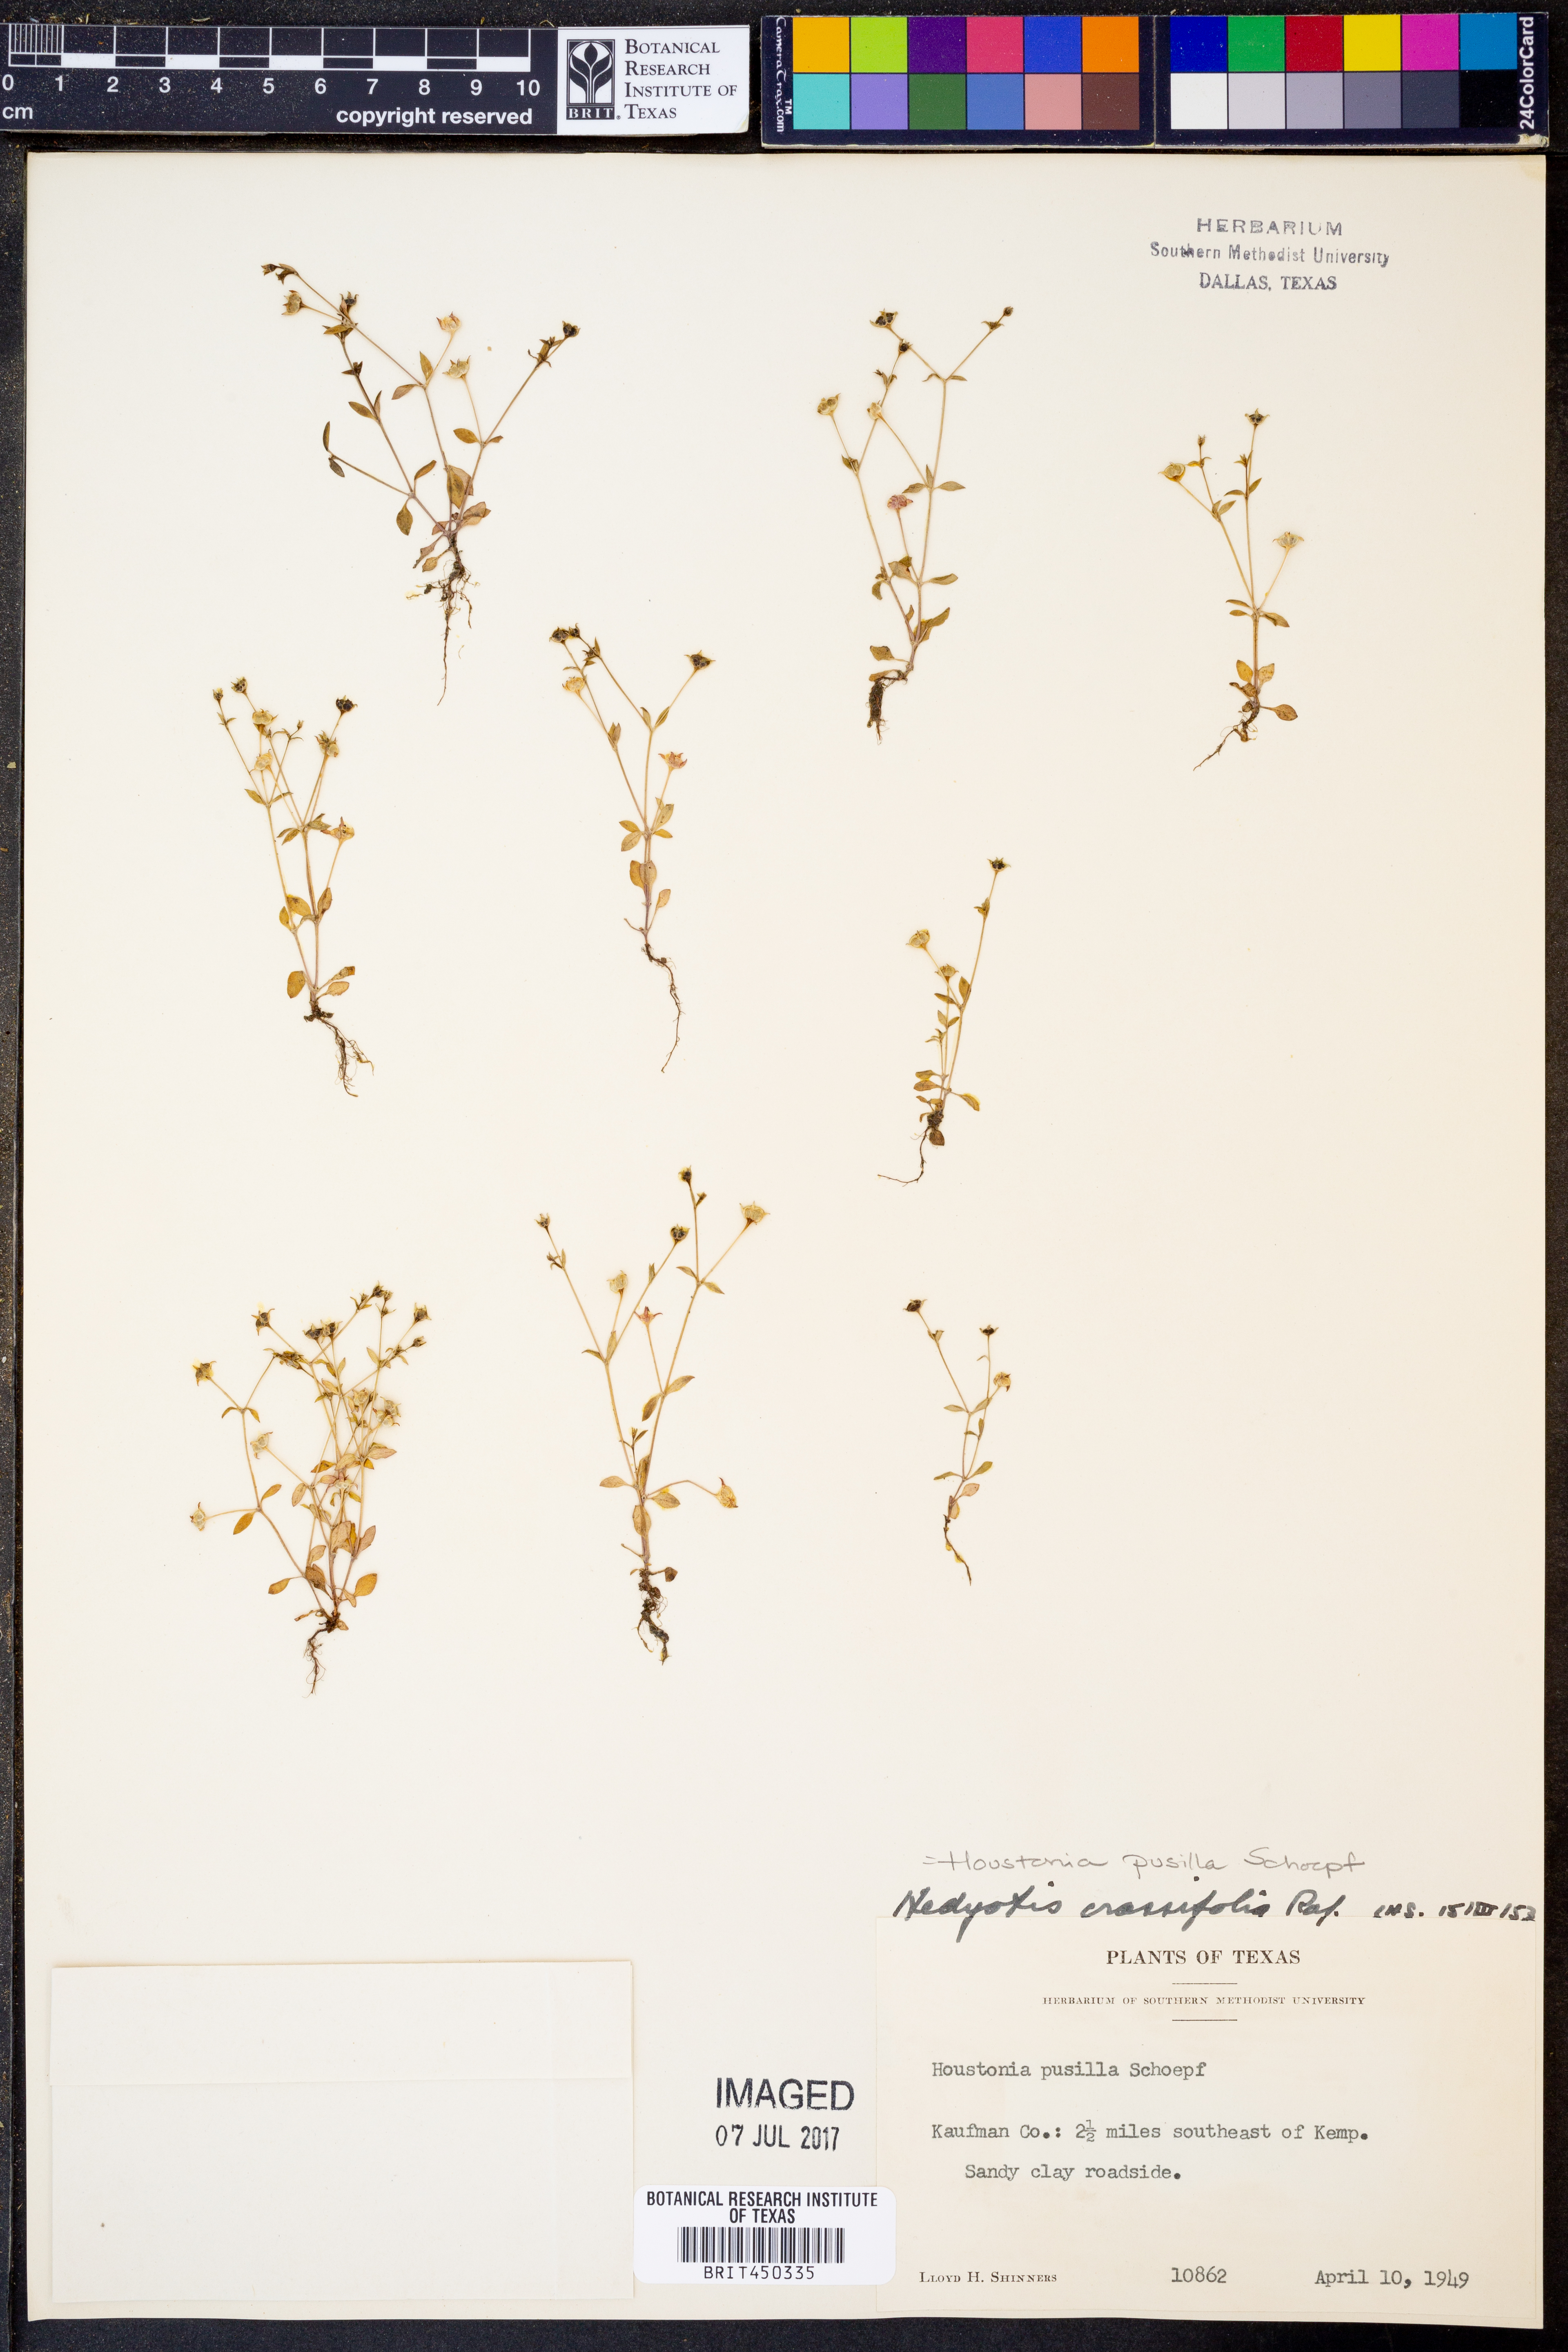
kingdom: Plantae
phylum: Tracheophyta
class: Magnoliopsida
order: Gentianales
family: Rubiaceae
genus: Houstonia
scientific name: Houstonia pusilla
